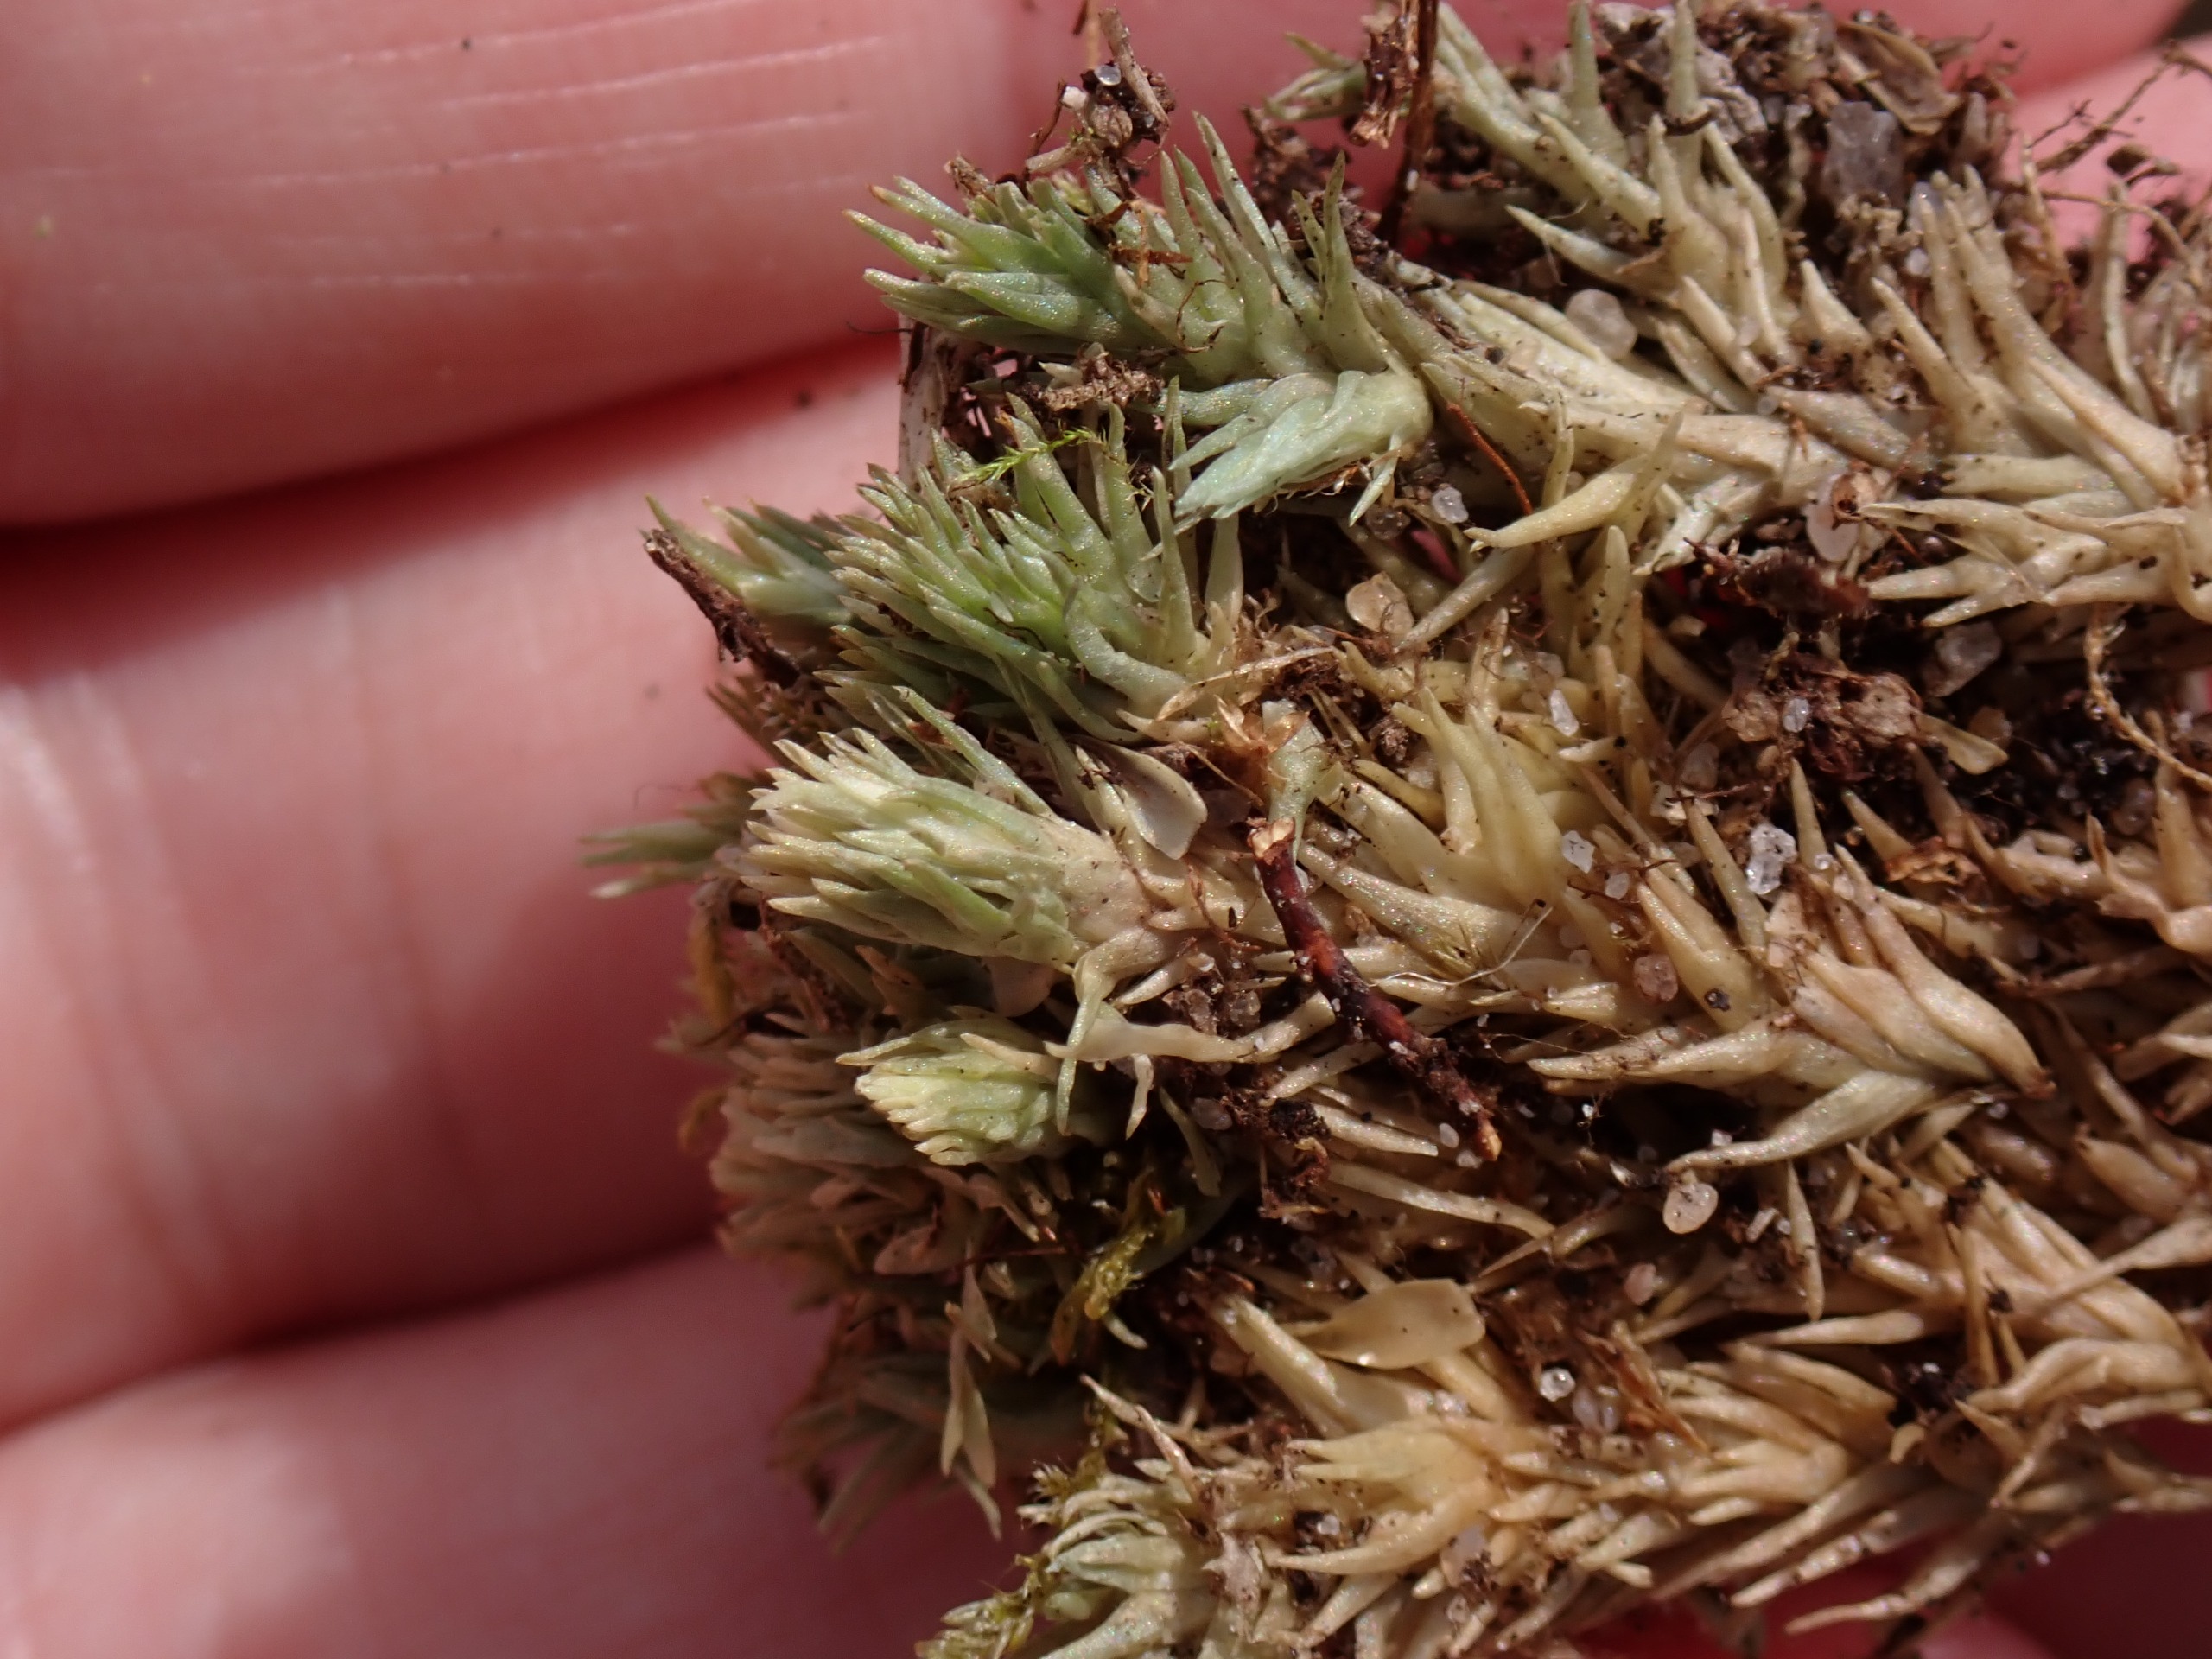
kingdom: Plantae
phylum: Bryophyta
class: Bryopsida
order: Dicranales
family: Leucobryaceae
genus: Leucobryum
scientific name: Leucobryum glaucum
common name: Almindelig hvidmos
